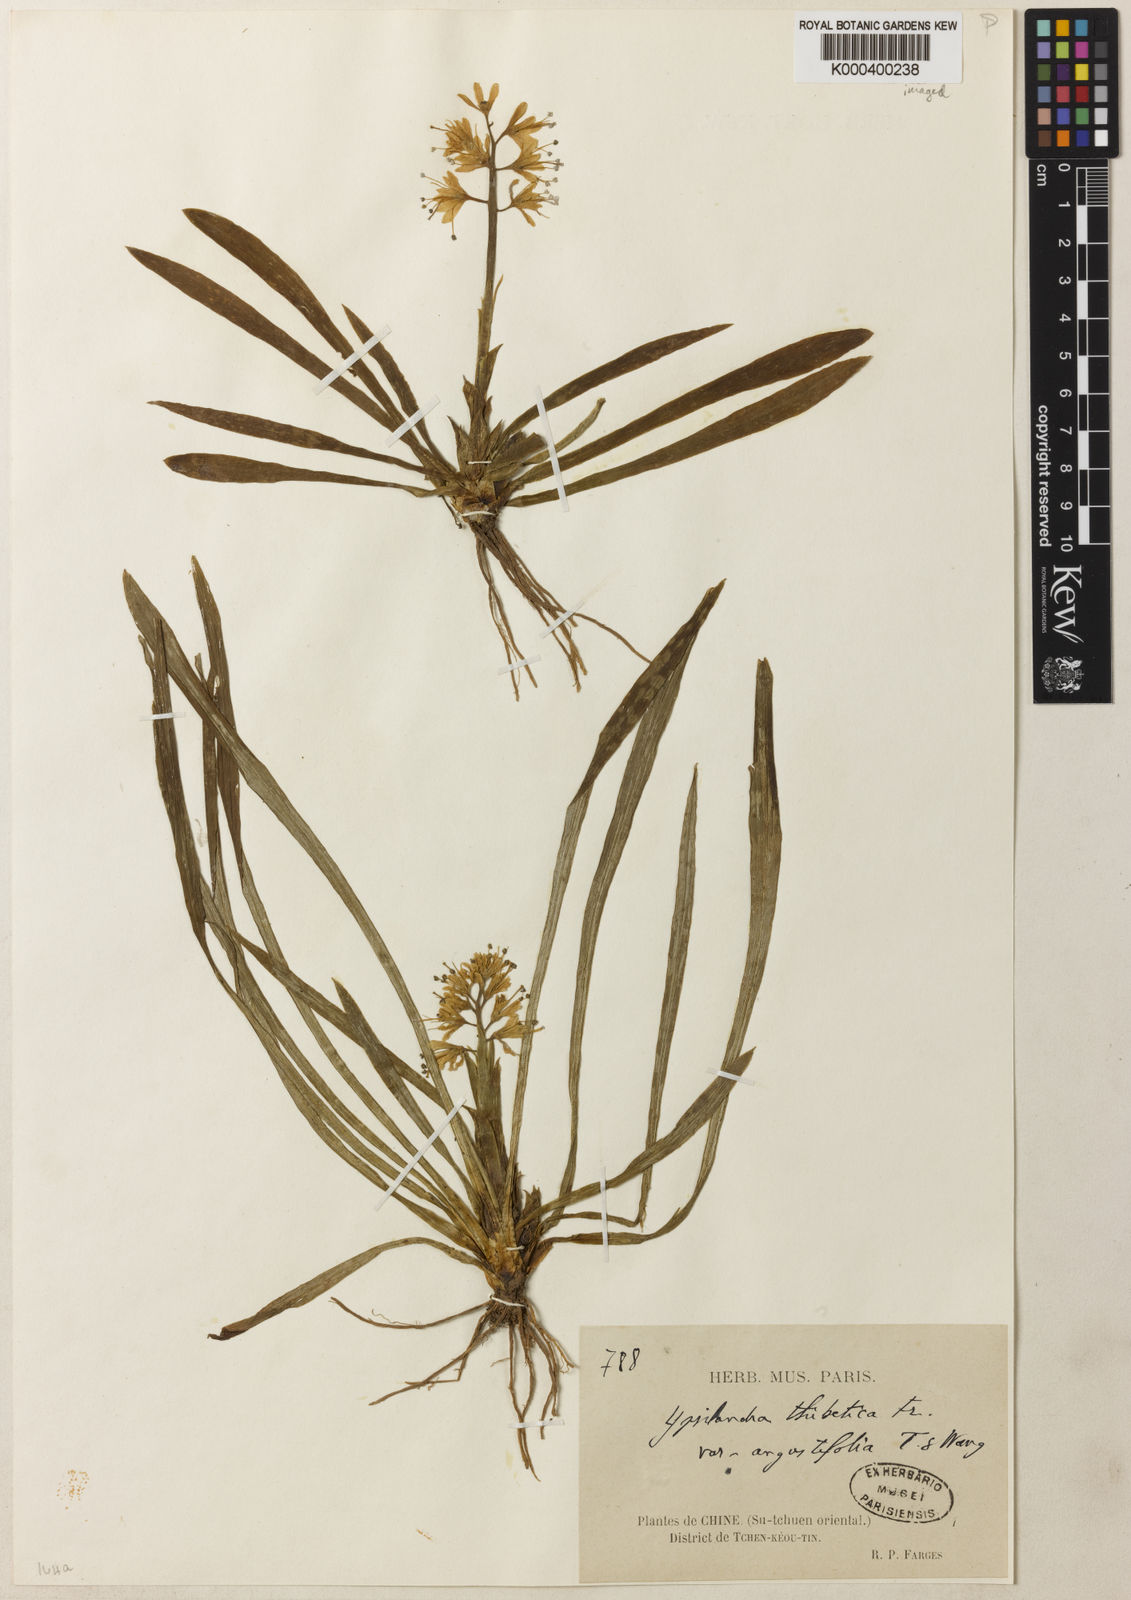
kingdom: Plantae
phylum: Tracheophyta
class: Liliopsida
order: Liliales
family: Melanthiaceae
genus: Helonias
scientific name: Helonias thibetica
